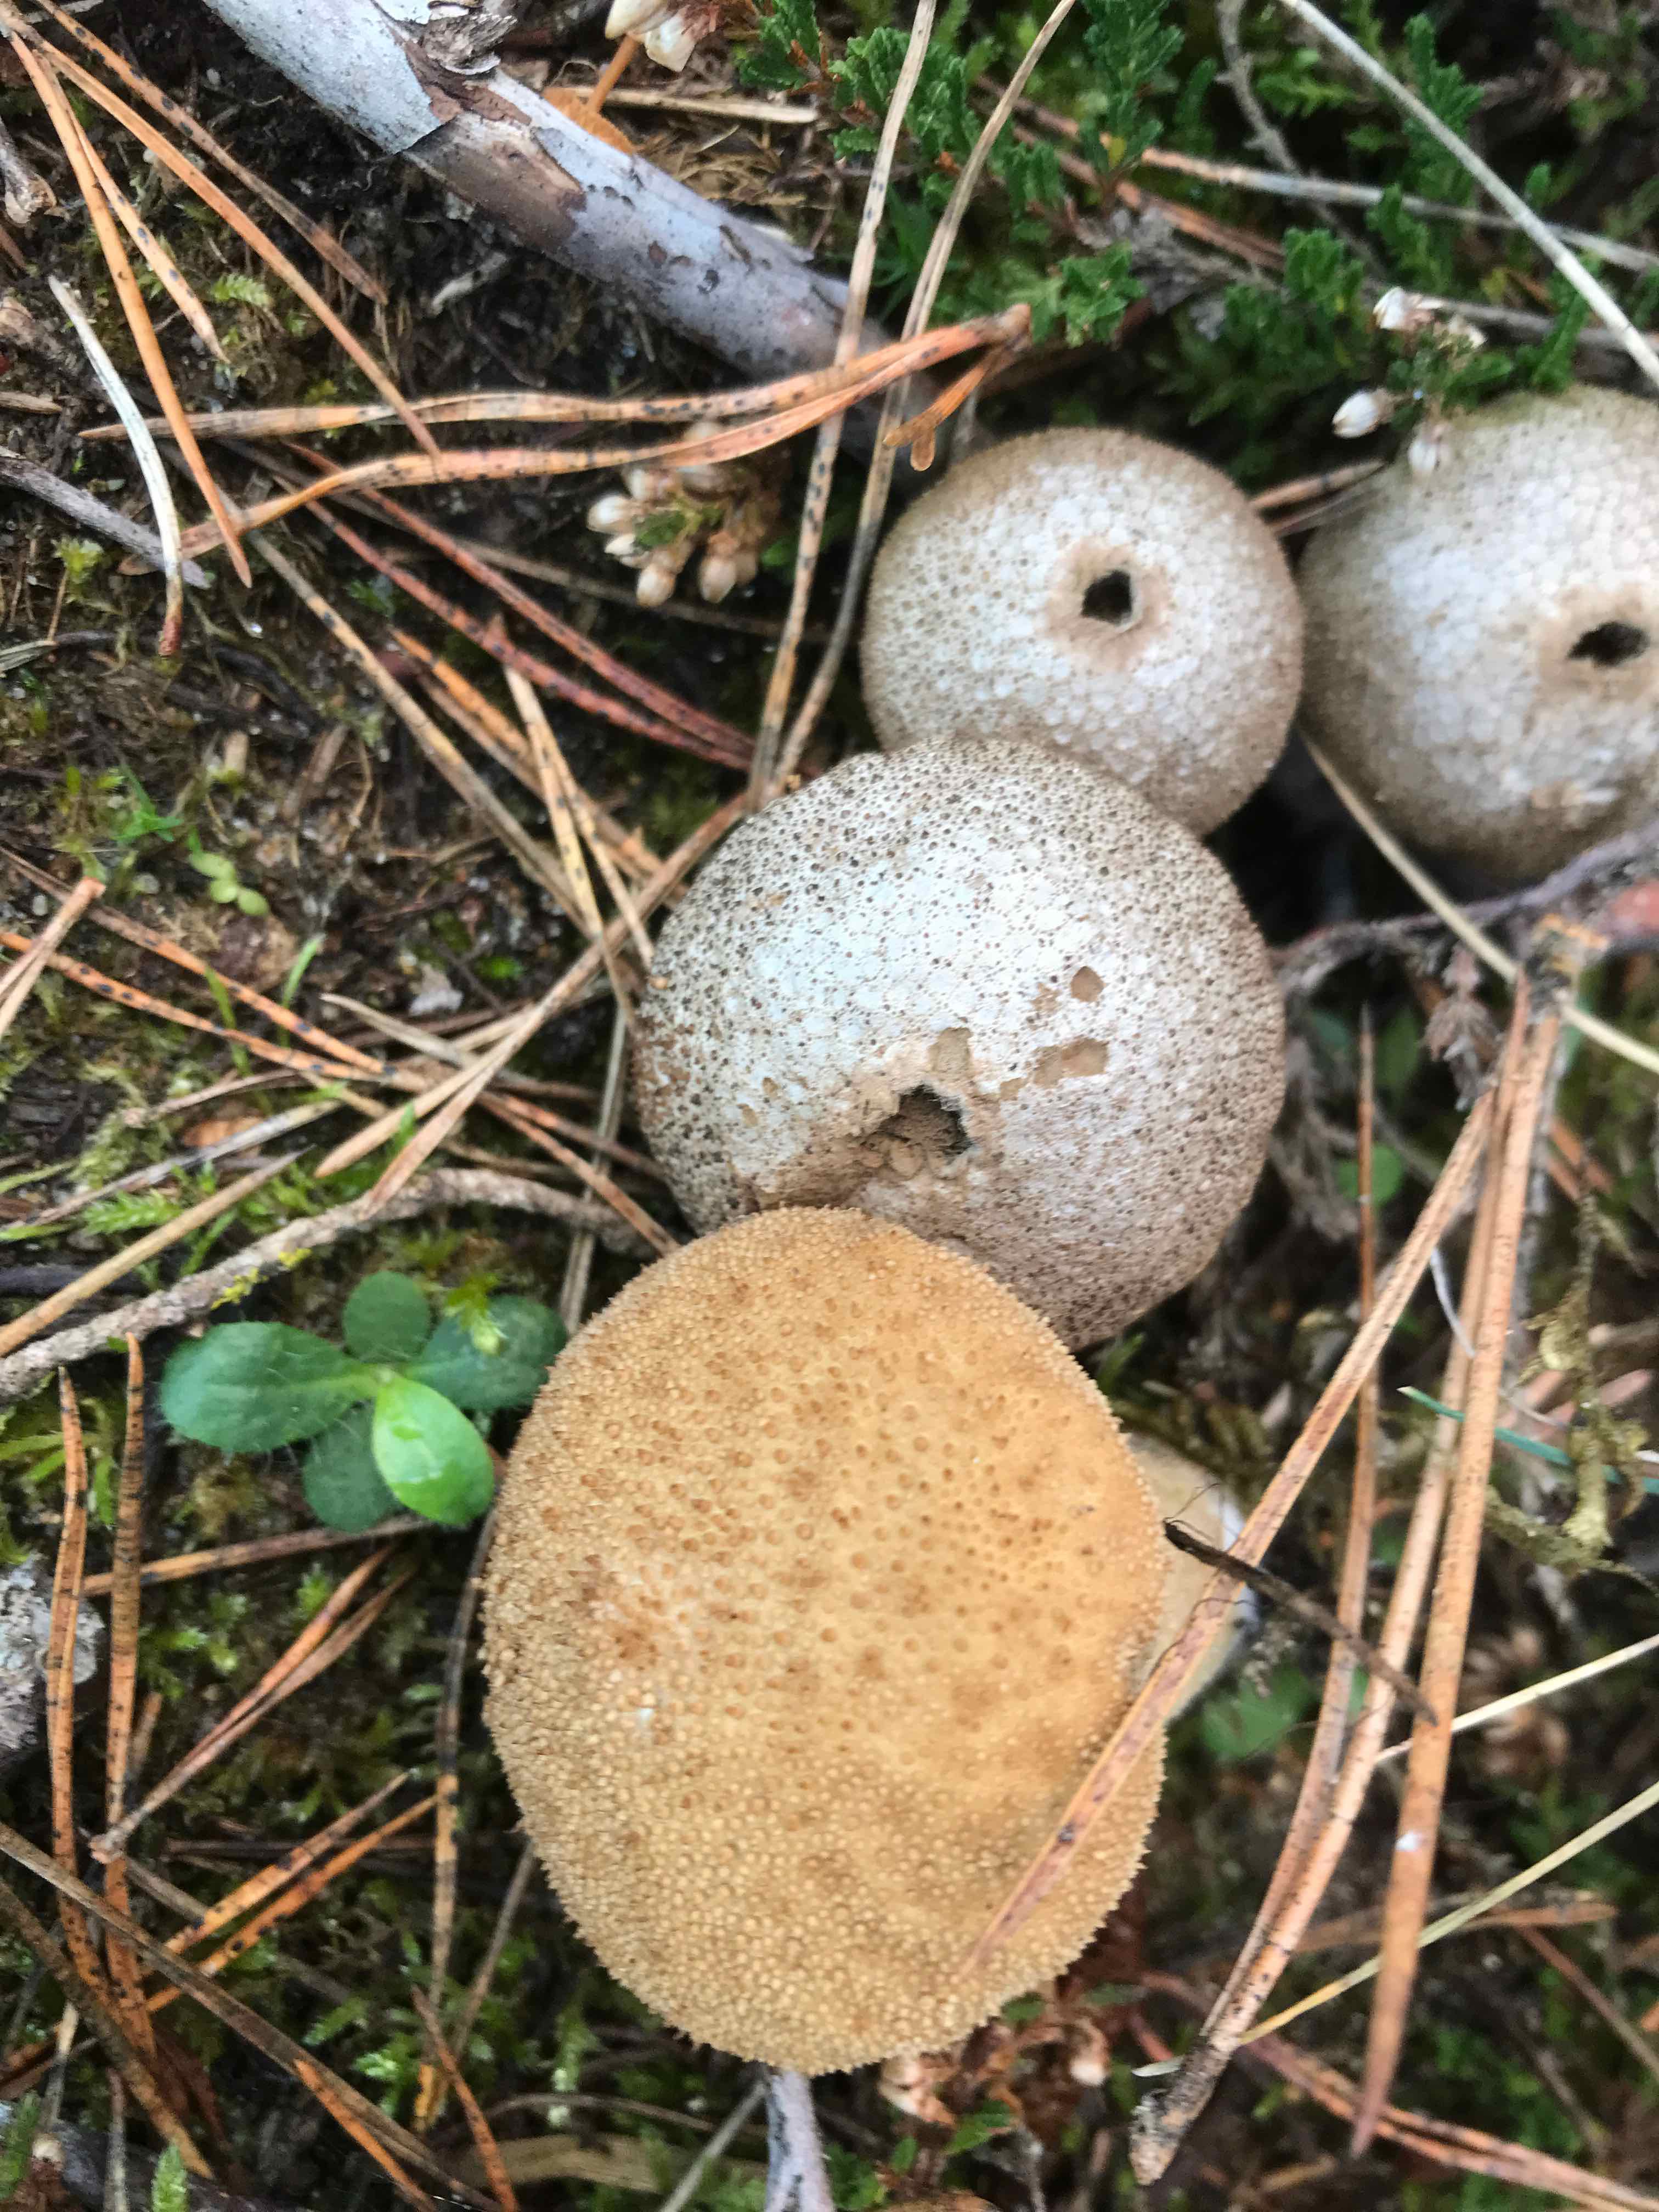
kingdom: Fungi
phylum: Basidiomycota
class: Agaricomycetes
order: Agaricales
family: Lycoperdaceae
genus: Lycoperdon
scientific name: Lycoperdon nigrescens
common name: sortagtig støvbold
